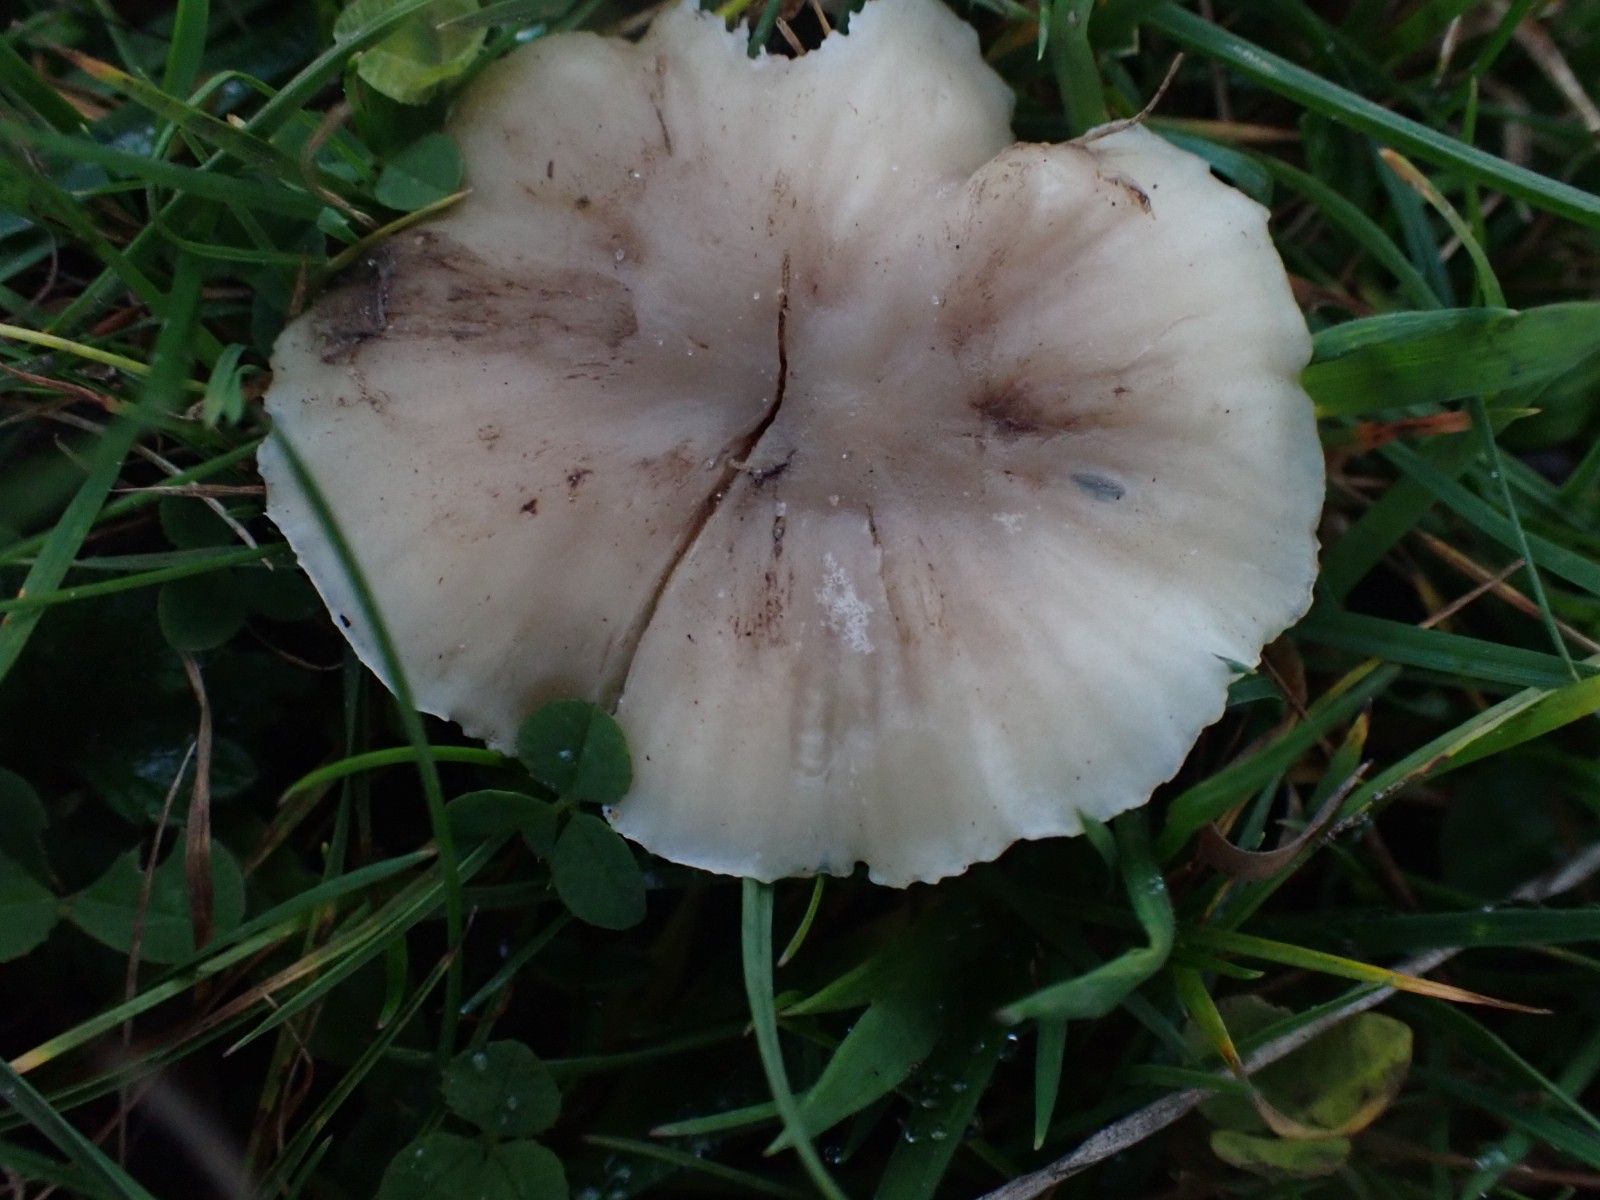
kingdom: Fungi
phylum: Basidiomycota
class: Agaricomycetes
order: Agaricales
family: Hygrophoraceae
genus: Cuphophyllus
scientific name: Cuphophyllus
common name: vokshat
